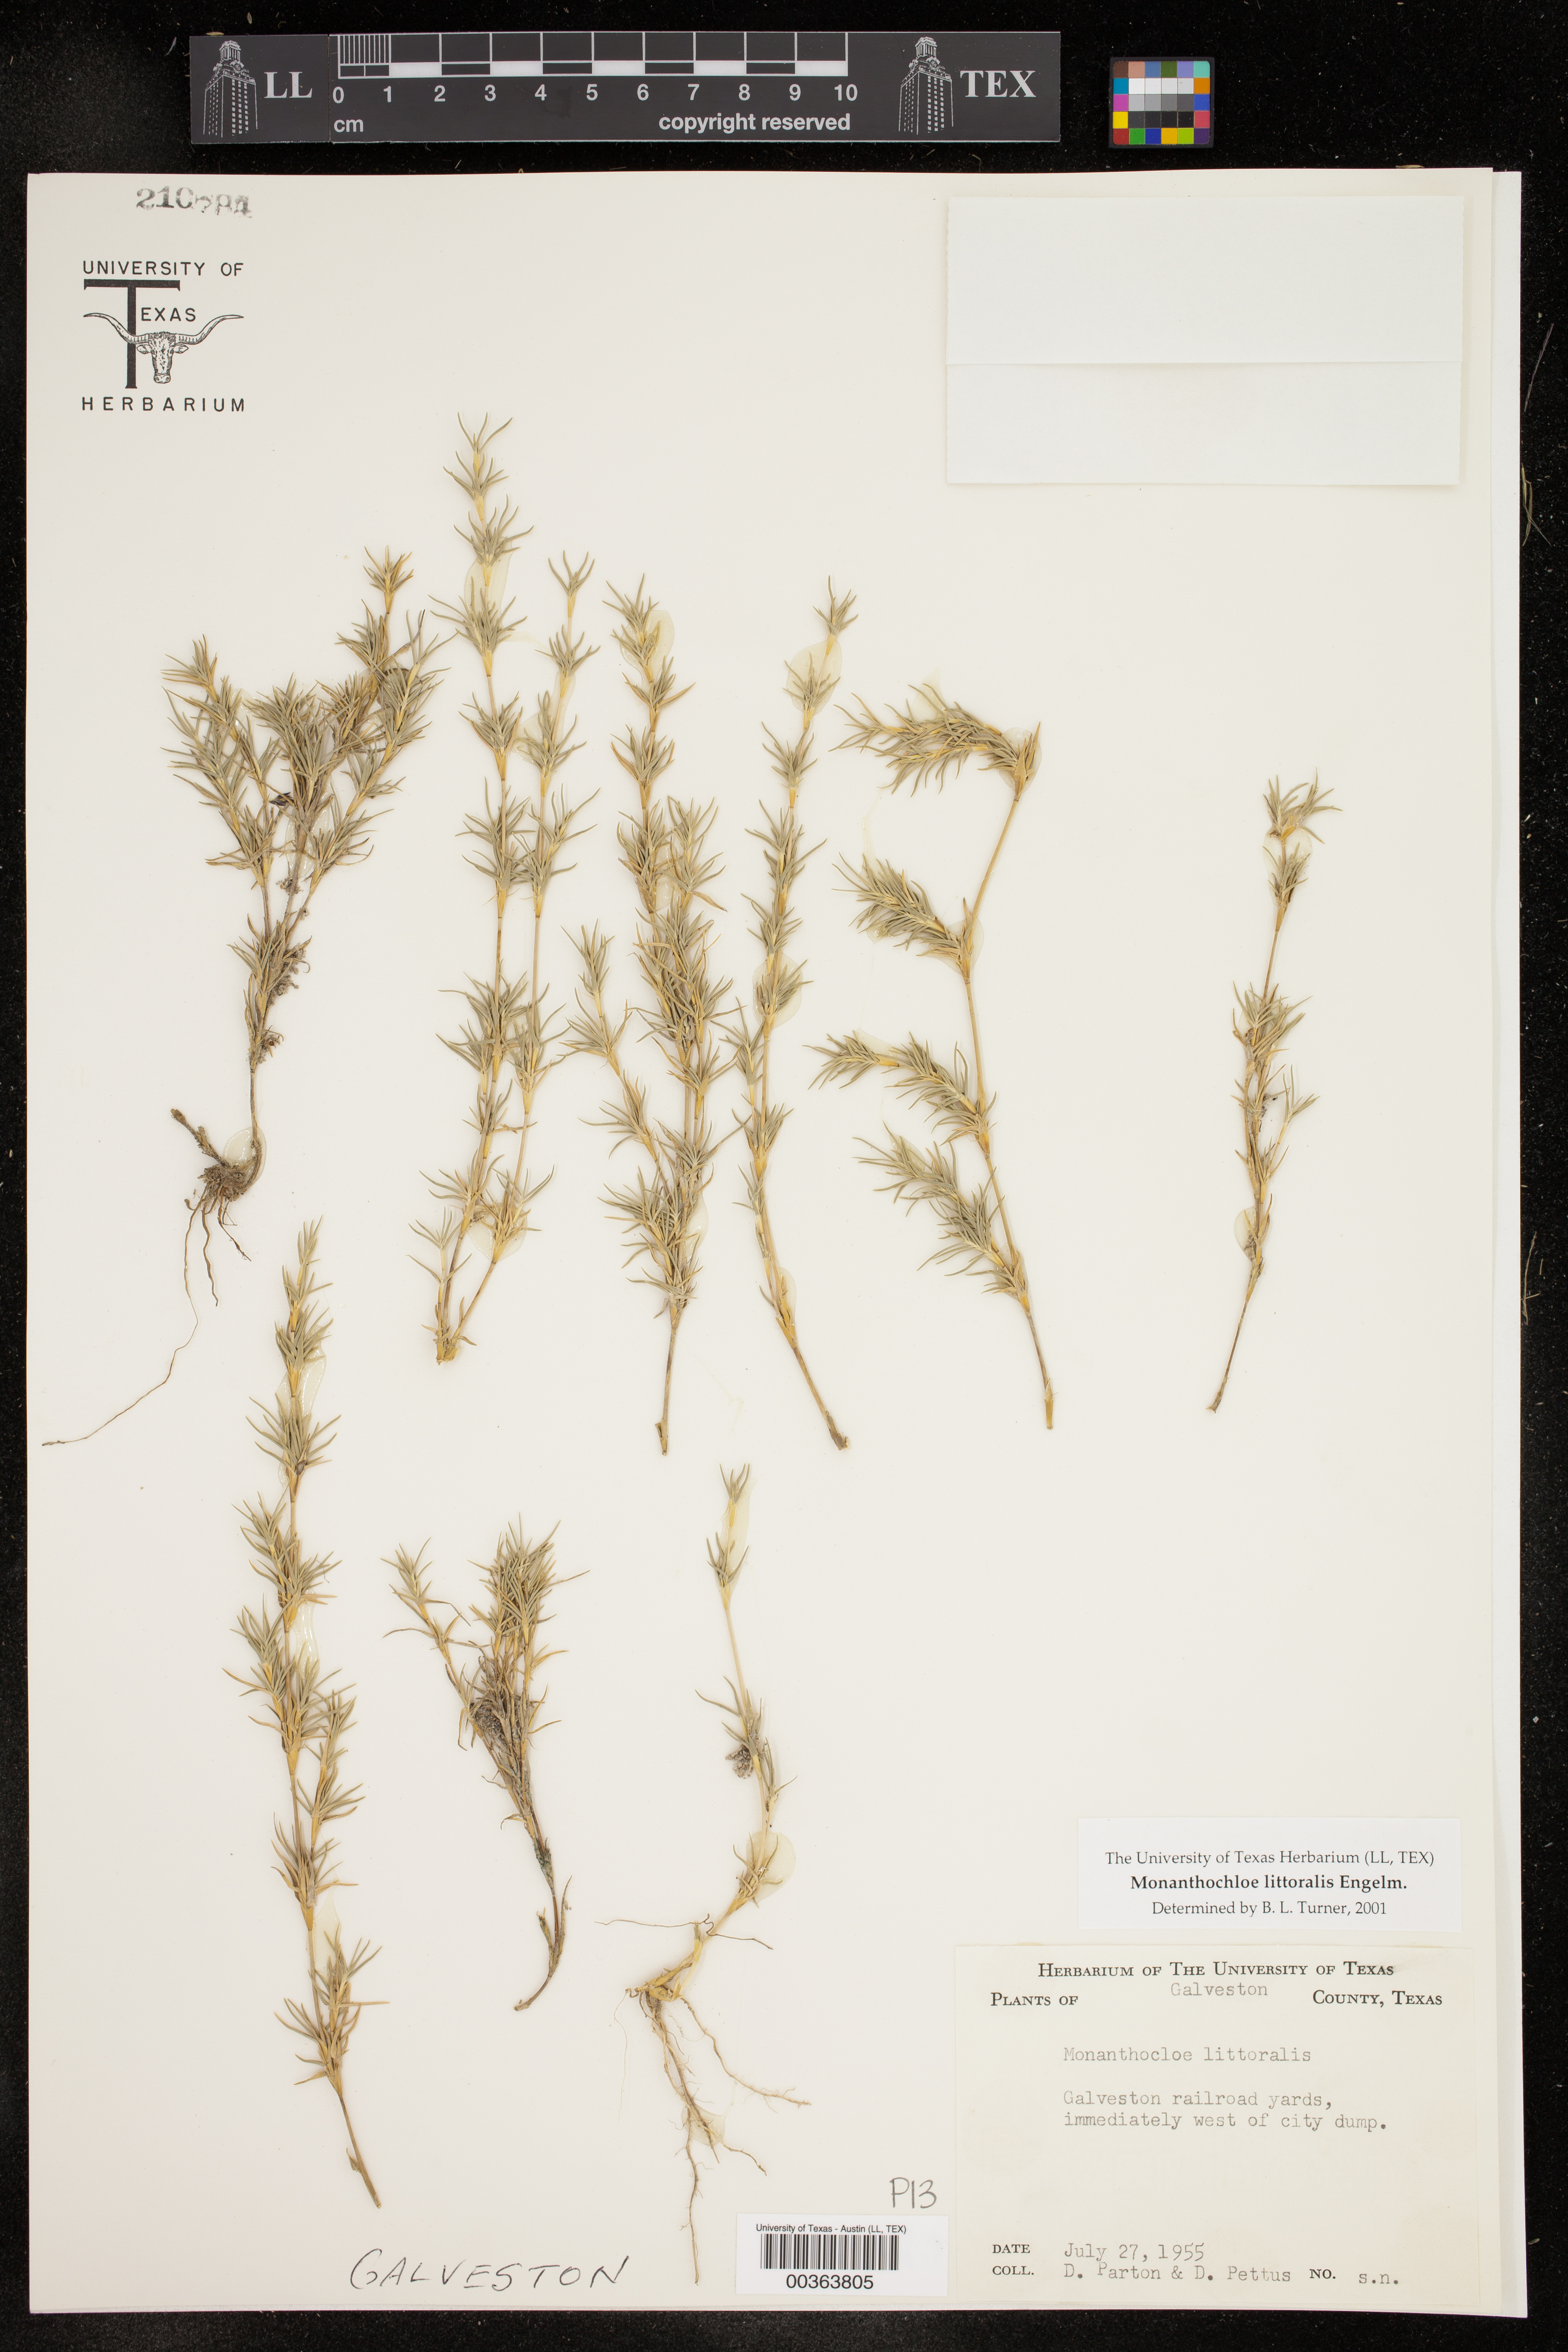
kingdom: Plantae
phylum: Tracheophyta
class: Liliopsida
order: Poales
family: Poaceae
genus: Distichlis
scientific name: Distichlis littoralis
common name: Shore grass
